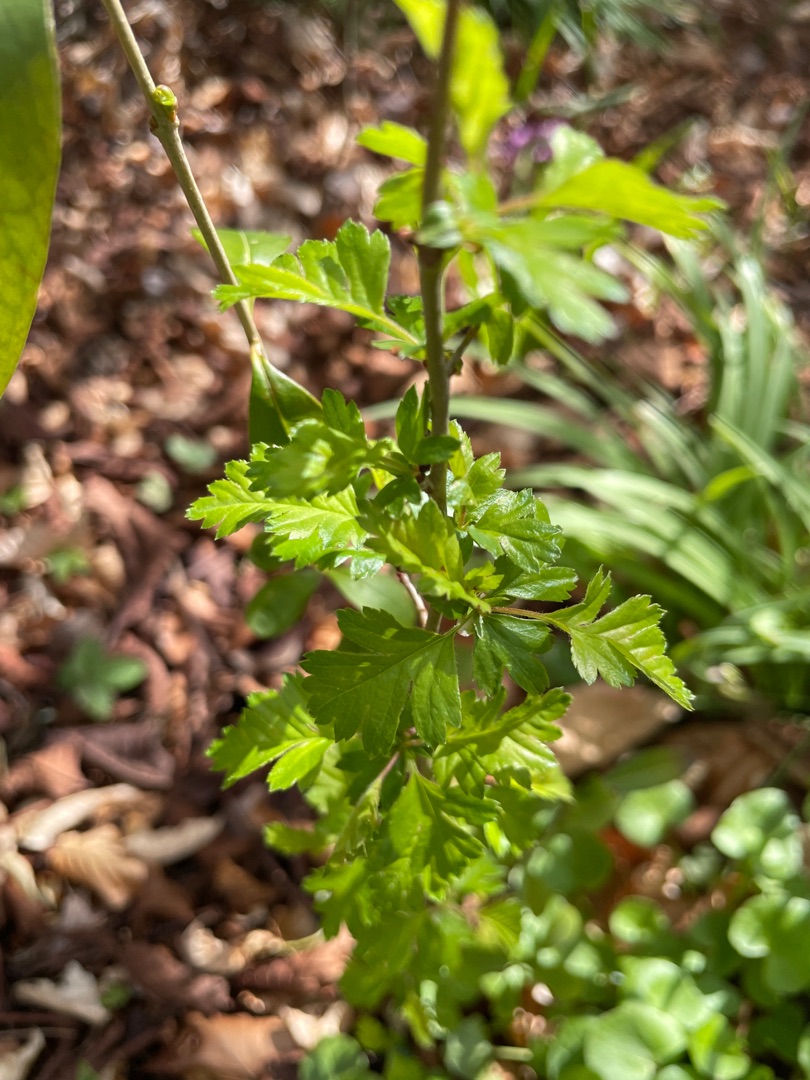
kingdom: Plantae
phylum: Tracheophyta
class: Magnoliopsida
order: Rosales
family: Rosaceae
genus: Crataegus
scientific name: Crataegus monogyna
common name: Engriflet hvidtjørn
